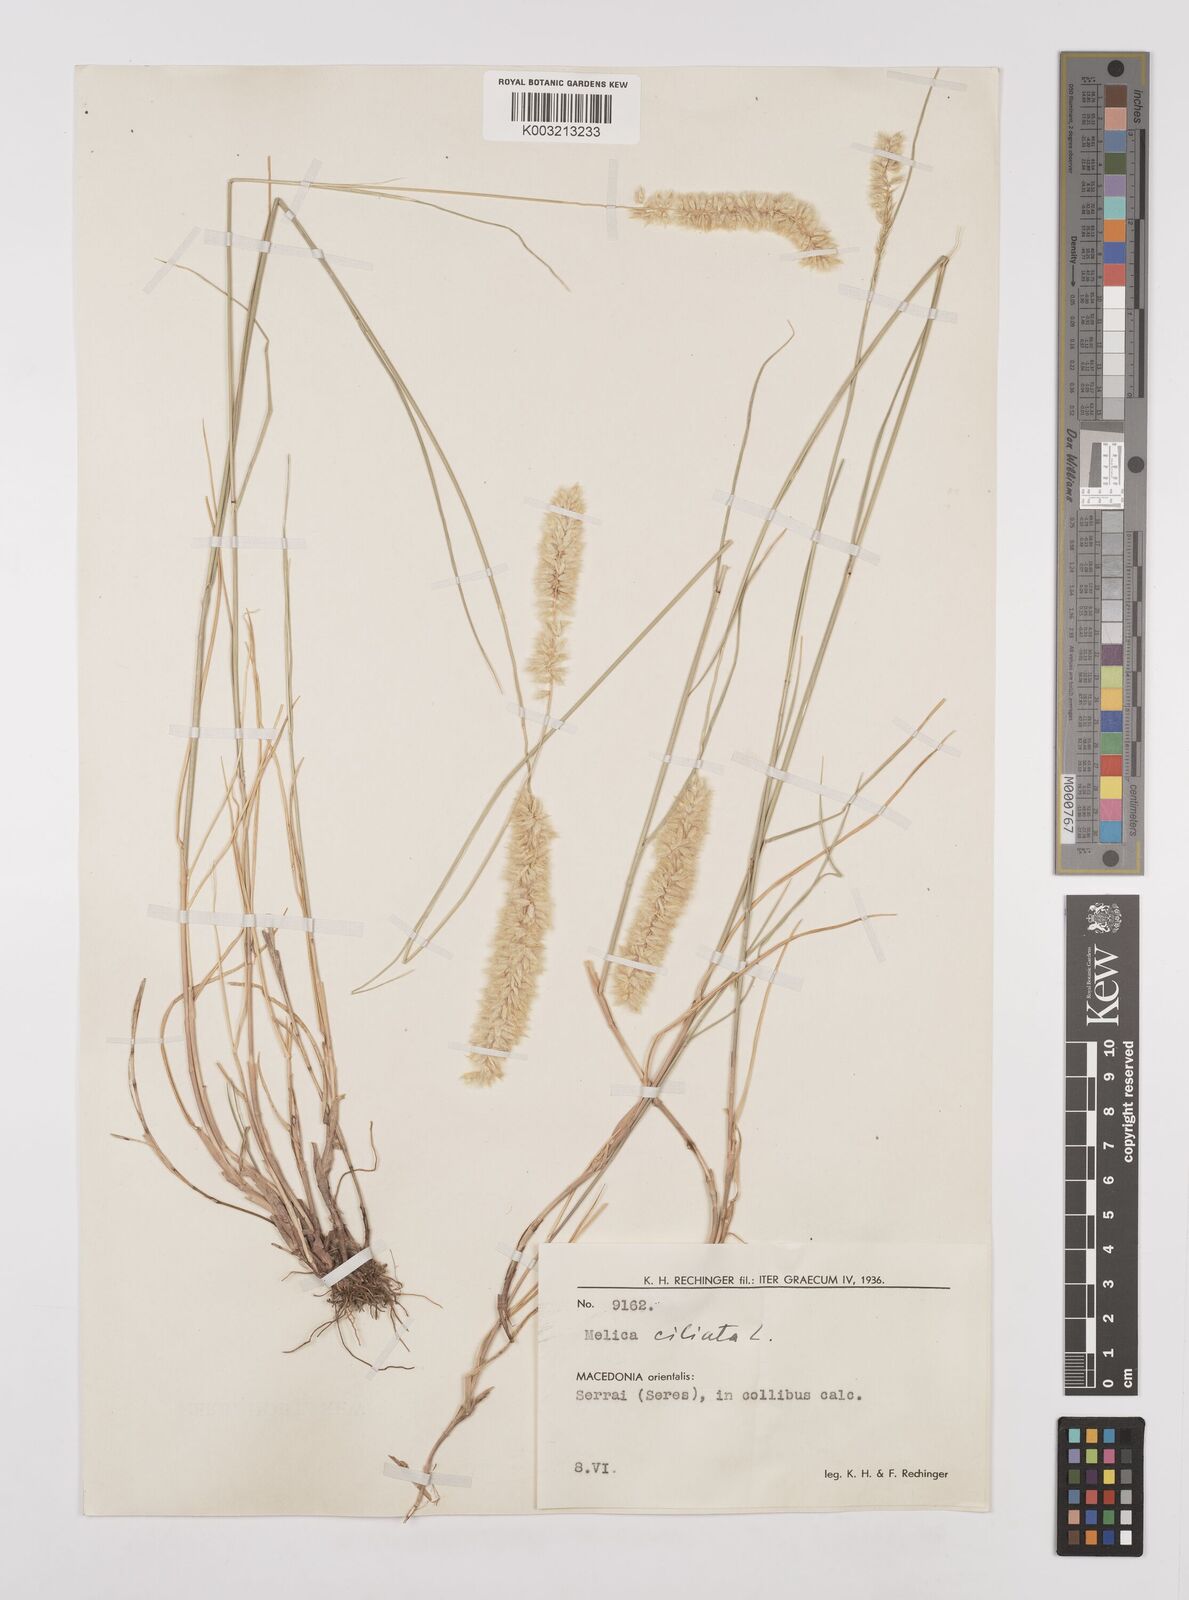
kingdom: Plantae
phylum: Tracheophyta
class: Liliopsida
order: Poales
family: Poaceae
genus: Melica
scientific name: Melica ciliata
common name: Hairy melicgrass
